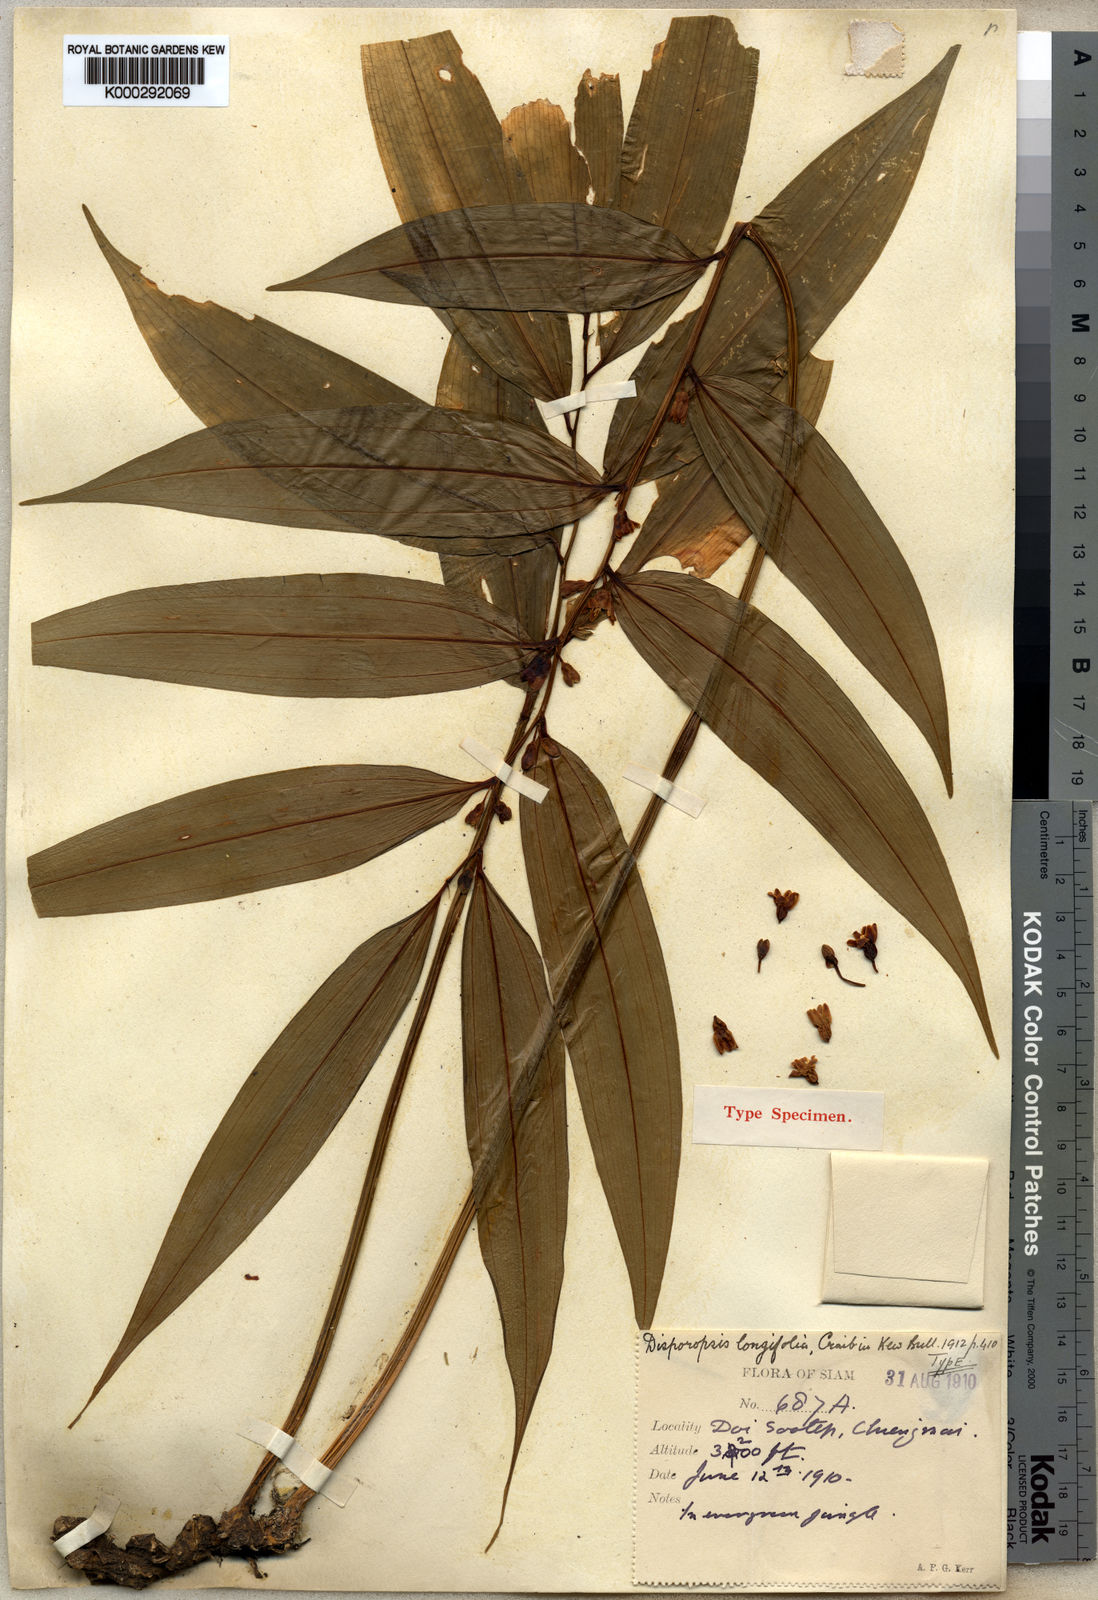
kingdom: Plantae
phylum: Tracheophyta
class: Liliopsida
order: Asparagales
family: Asparagaceae
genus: Disporopsis
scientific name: Disporopsis longifolia
